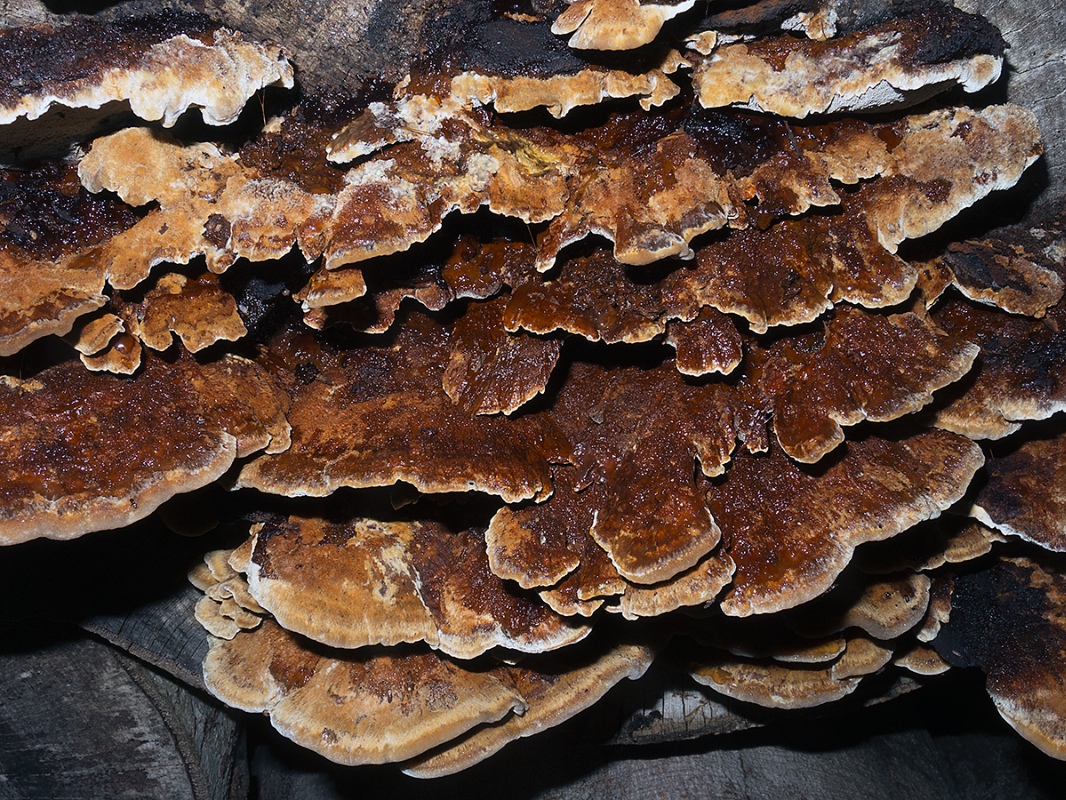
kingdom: Fungi
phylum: Basidiomycota
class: Agaricomycetes
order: Hymenochaetales
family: Hymenochaetaceae
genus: Inonotus
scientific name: Inonotus cuticularis
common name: kroghåret spejlporesvamp
